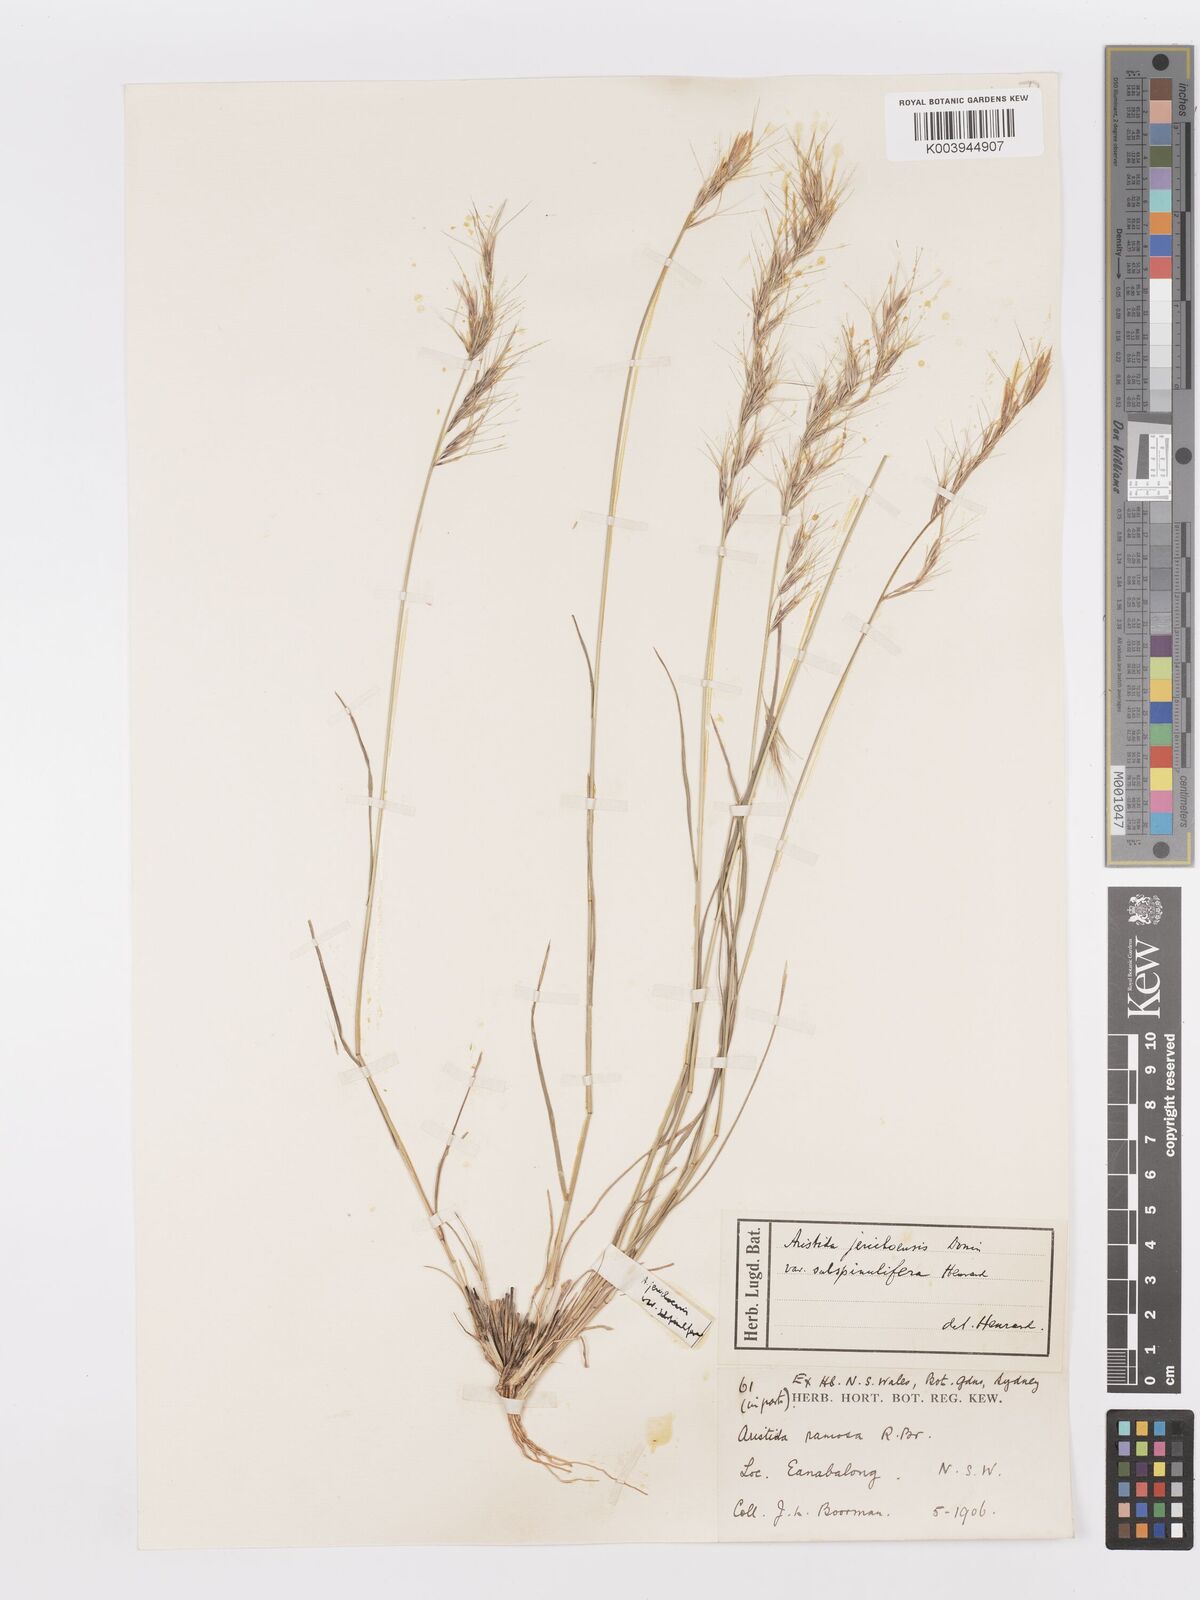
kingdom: Plantae
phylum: Tracheophyta
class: Liliopsida
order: Poales
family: Poaceae
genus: Aristida
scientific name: Aristida jerichoensis
